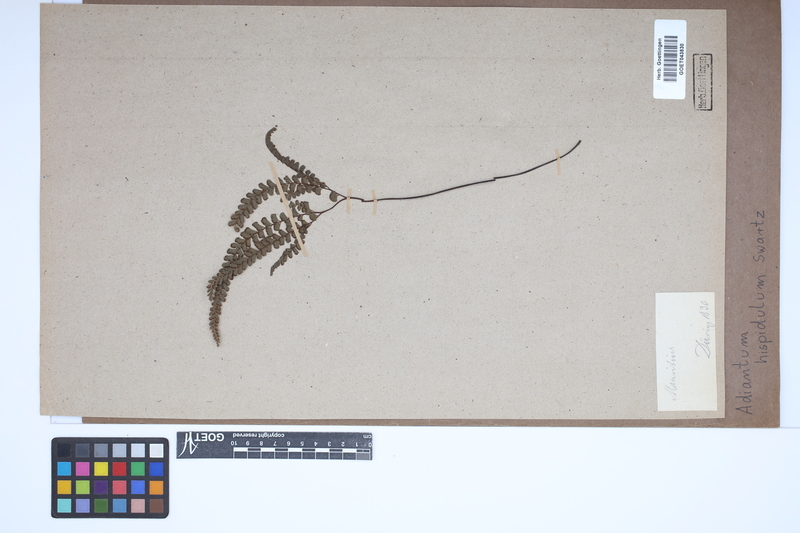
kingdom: Plantae
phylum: Tracheophyta
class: Polypodiopsida
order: Polypodiales
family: Pteridaceae
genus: Adiantum
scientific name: Adiantum hispidulum
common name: Rough maidenhair
